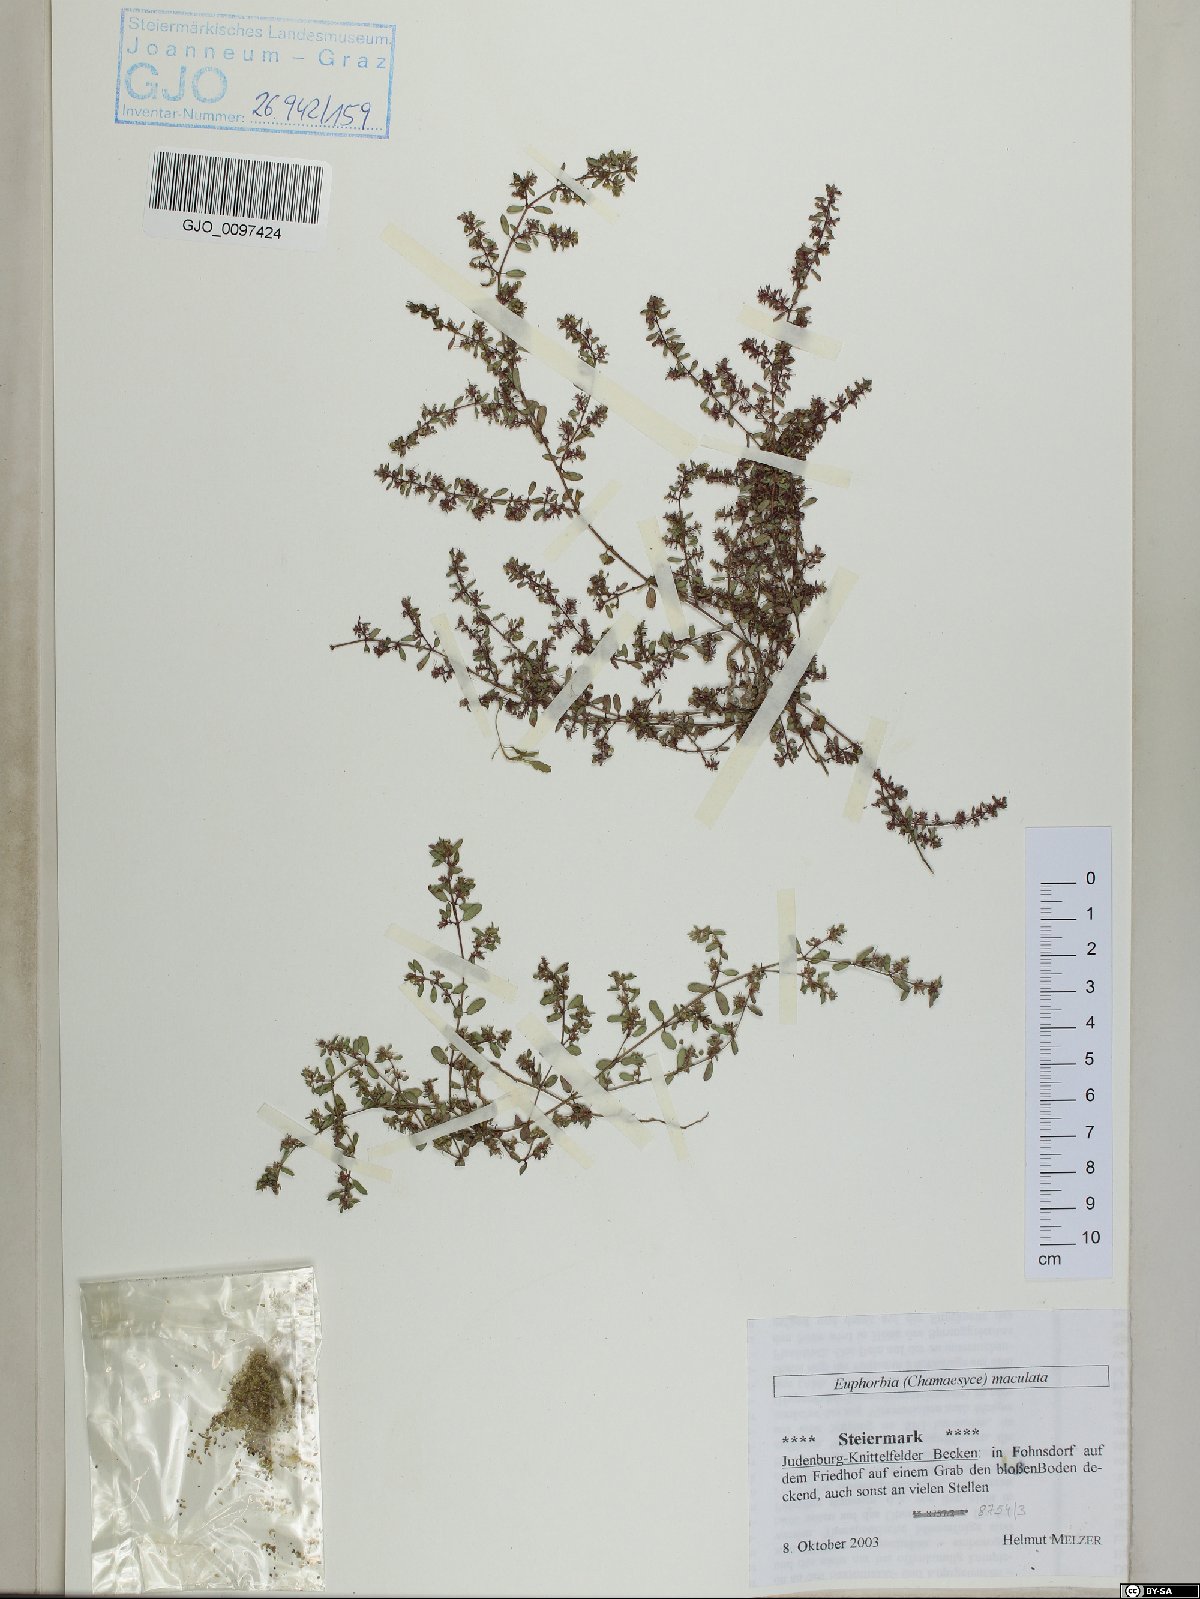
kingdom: Plantae
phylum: Tracheophyta
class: Magnoliopsida
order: Malpighiales
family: Euphorbiaceae
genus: Euphorbia
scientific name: Euphorbia maculata
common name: Spotted spurge
